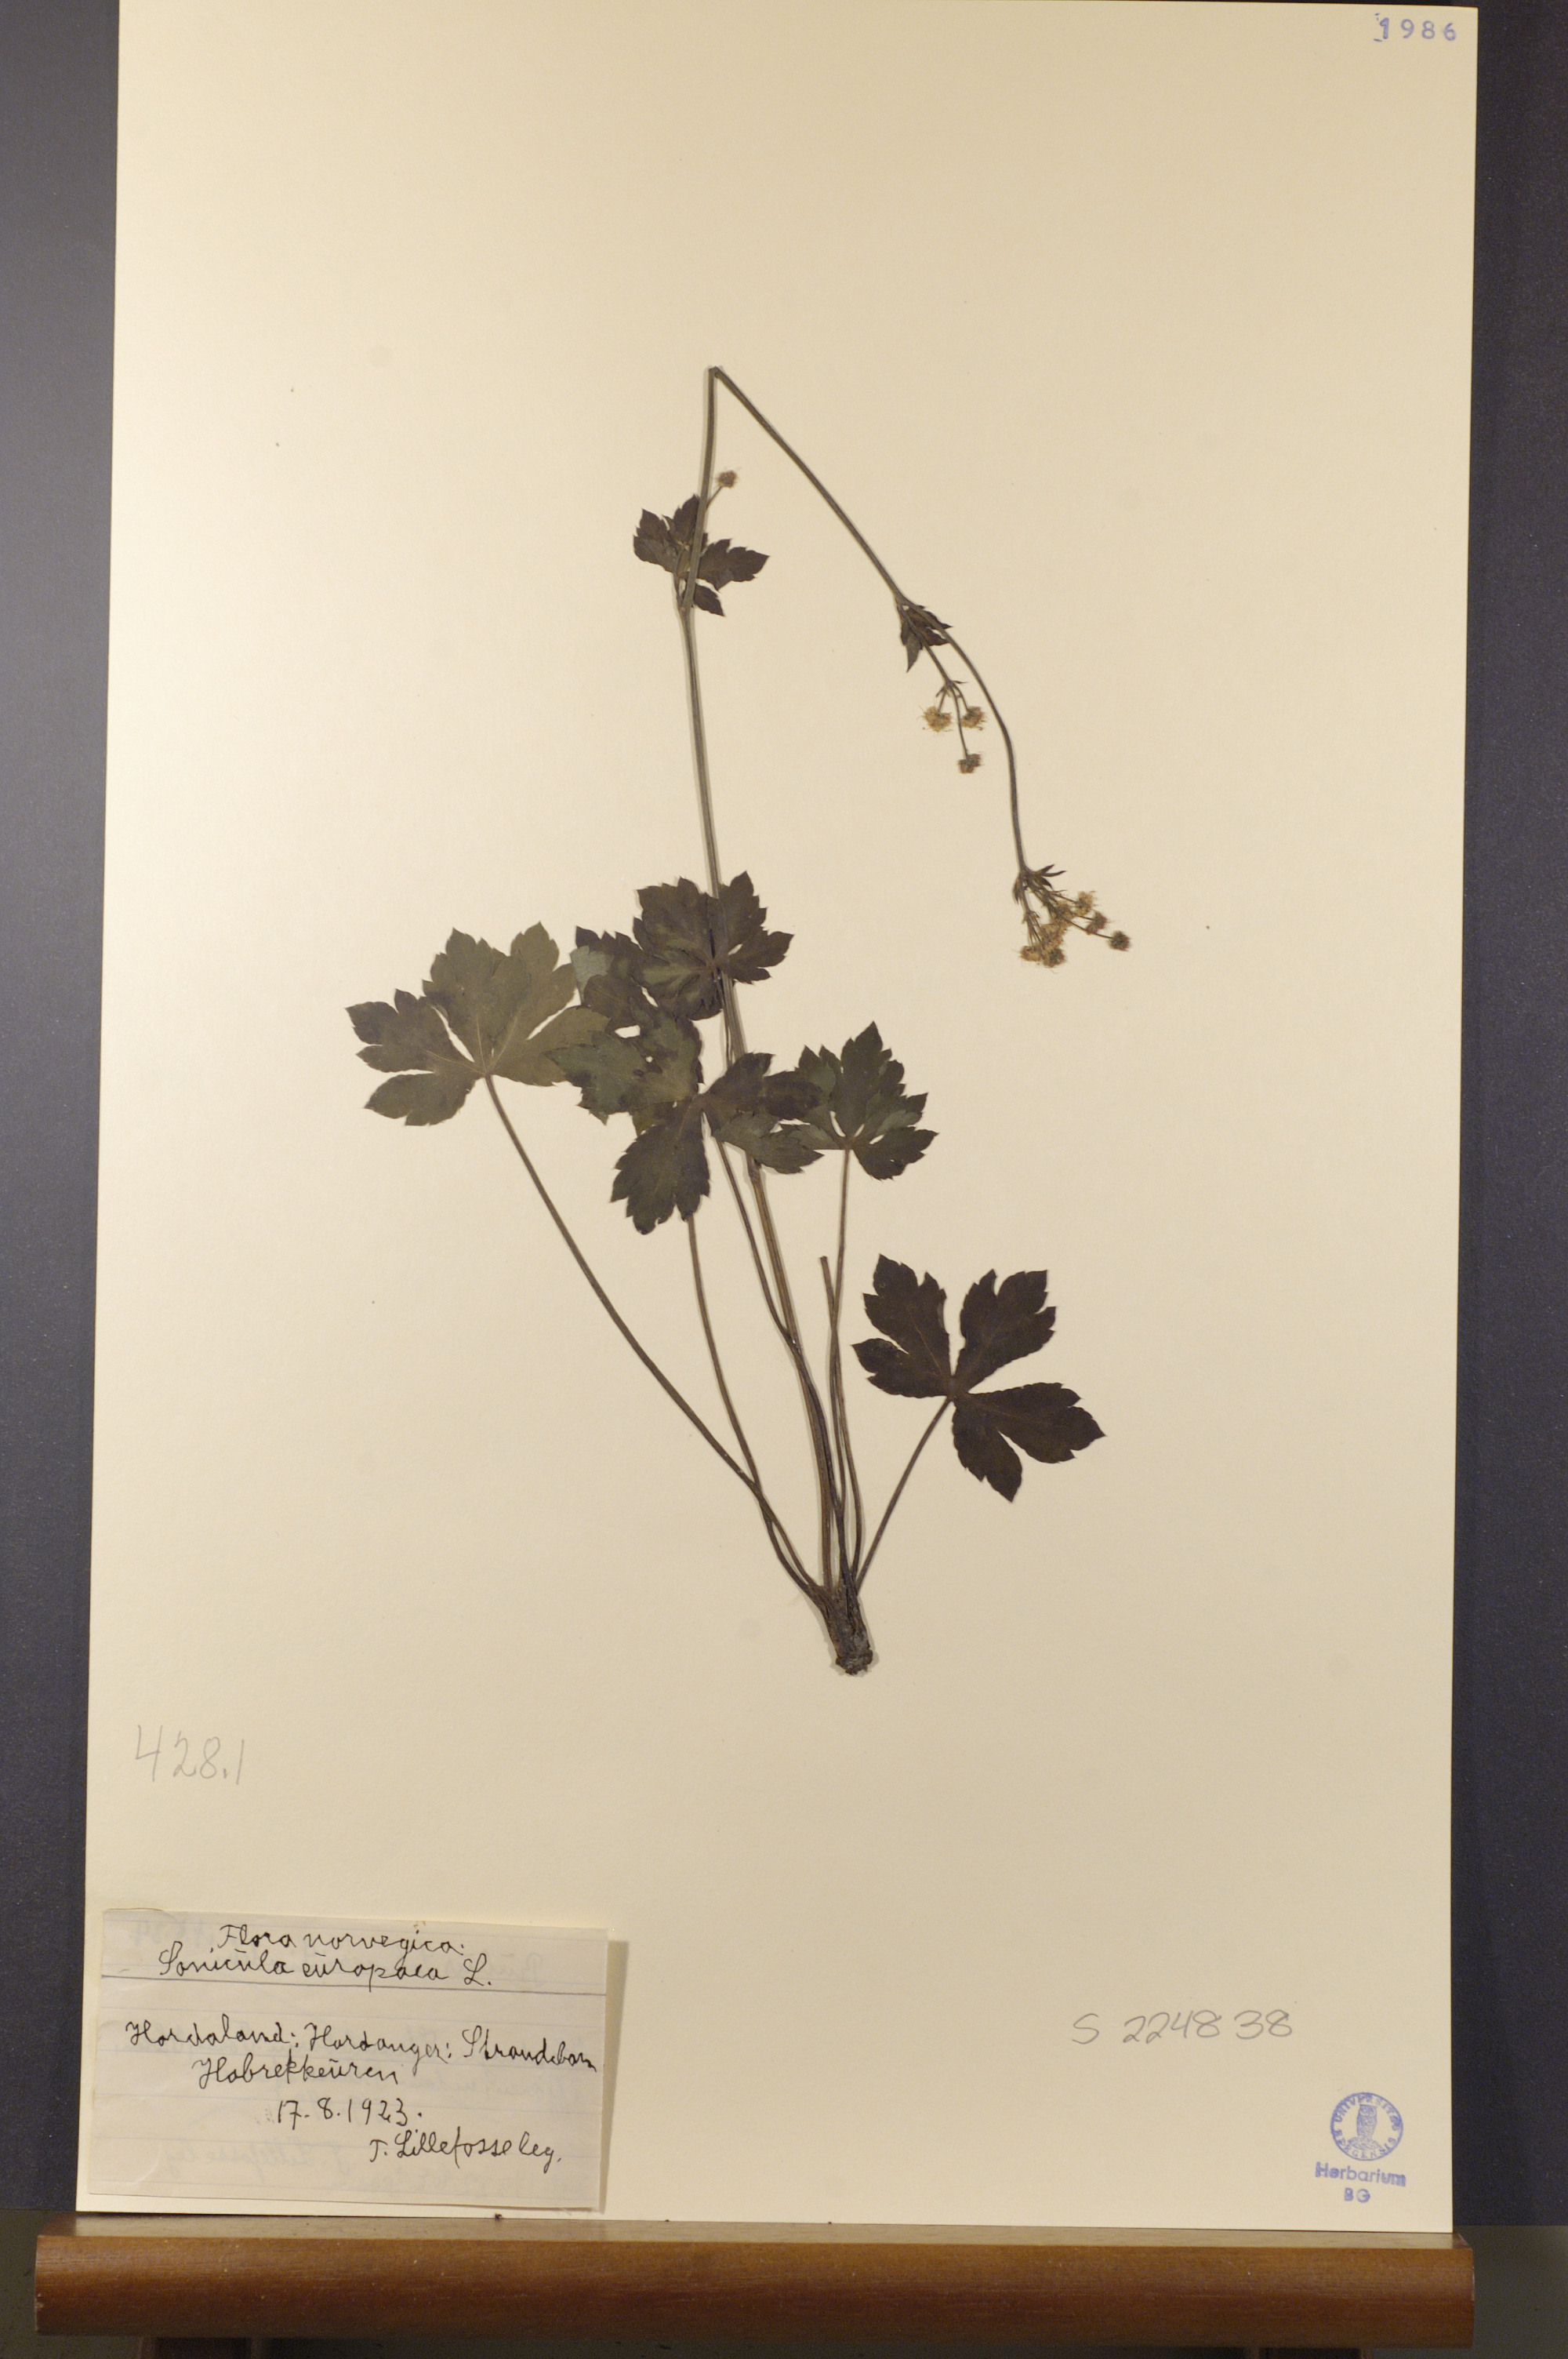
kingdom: Plantae
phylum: Tracheophyta
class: Magnoliopsida
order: Apiales
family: Apiaceae
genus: Sanicula
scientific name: Sanicula europaea
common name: Sanicle
